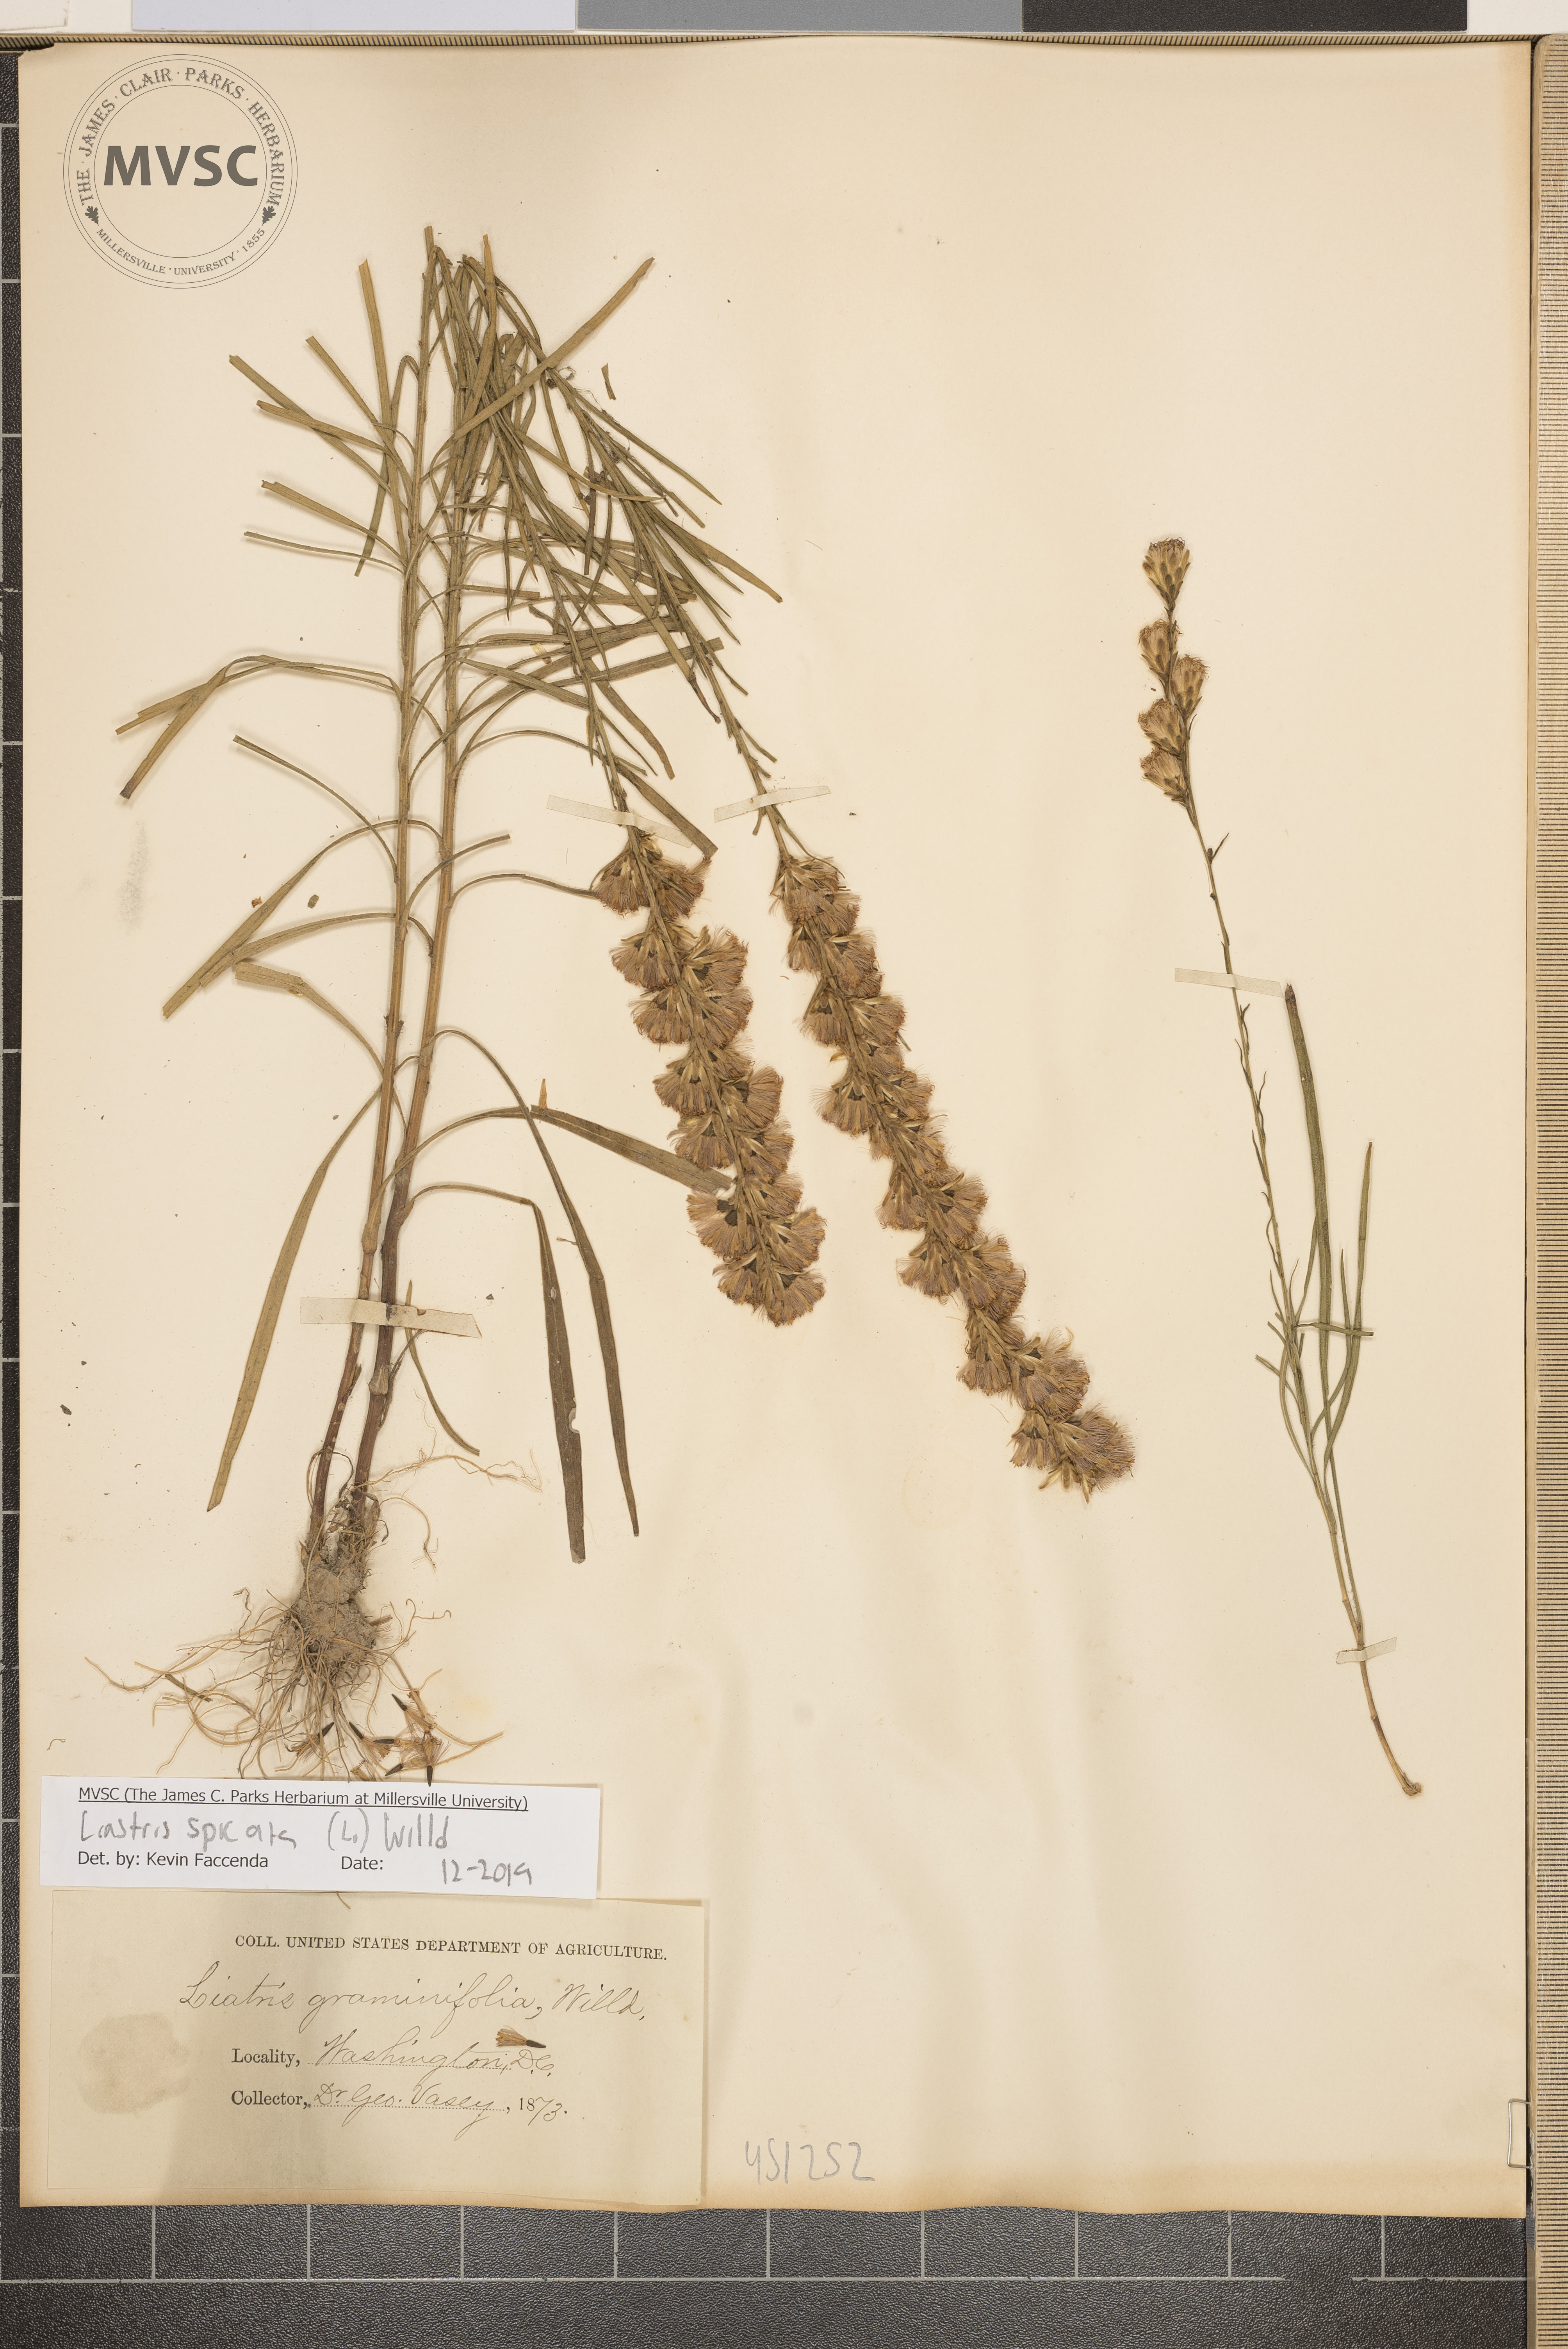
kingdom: Plantae
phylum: Tracheophyta
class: Magnoliopsida
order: Asterales
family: Asteraceae
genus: Liatris
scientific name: Liatris spicata
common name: Florist gayfeather
